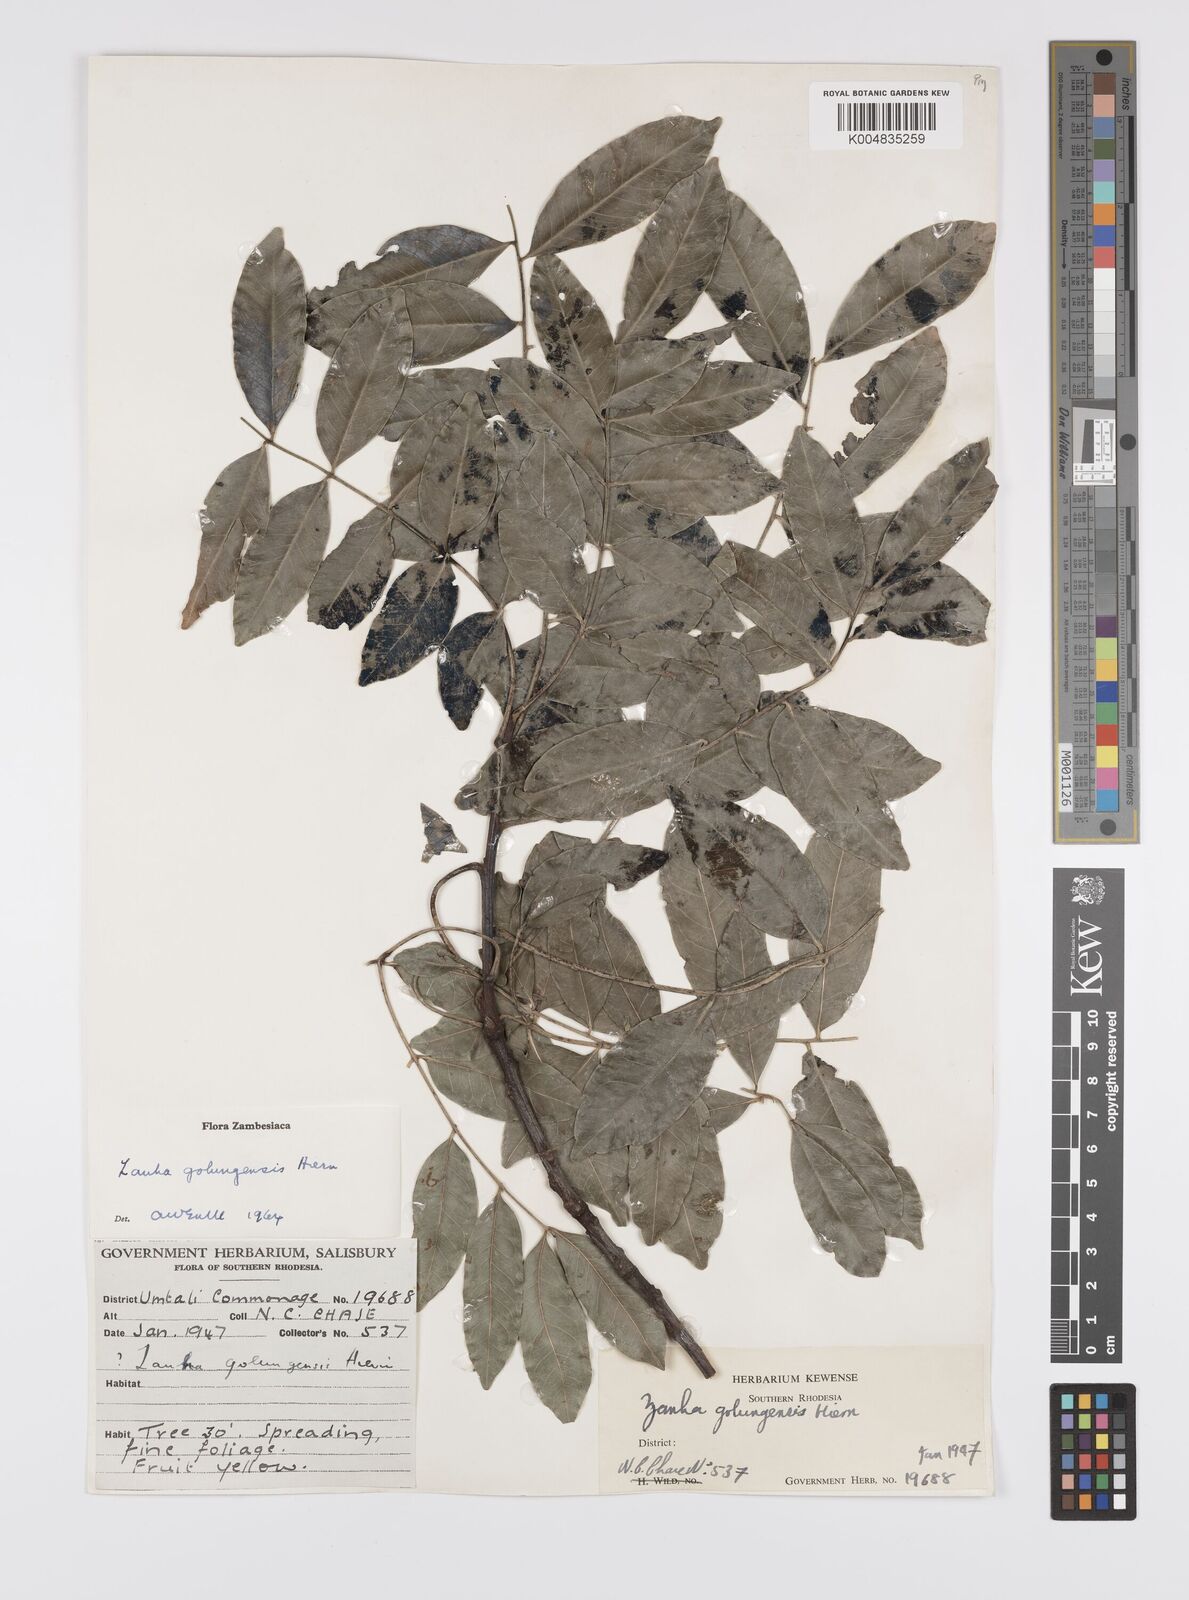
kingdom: Plantae
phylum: Tracheophyta
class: Magnoliopsida
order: Sapindales
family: Sapindaceae
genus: Zanha
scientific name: Zanha golungensis
